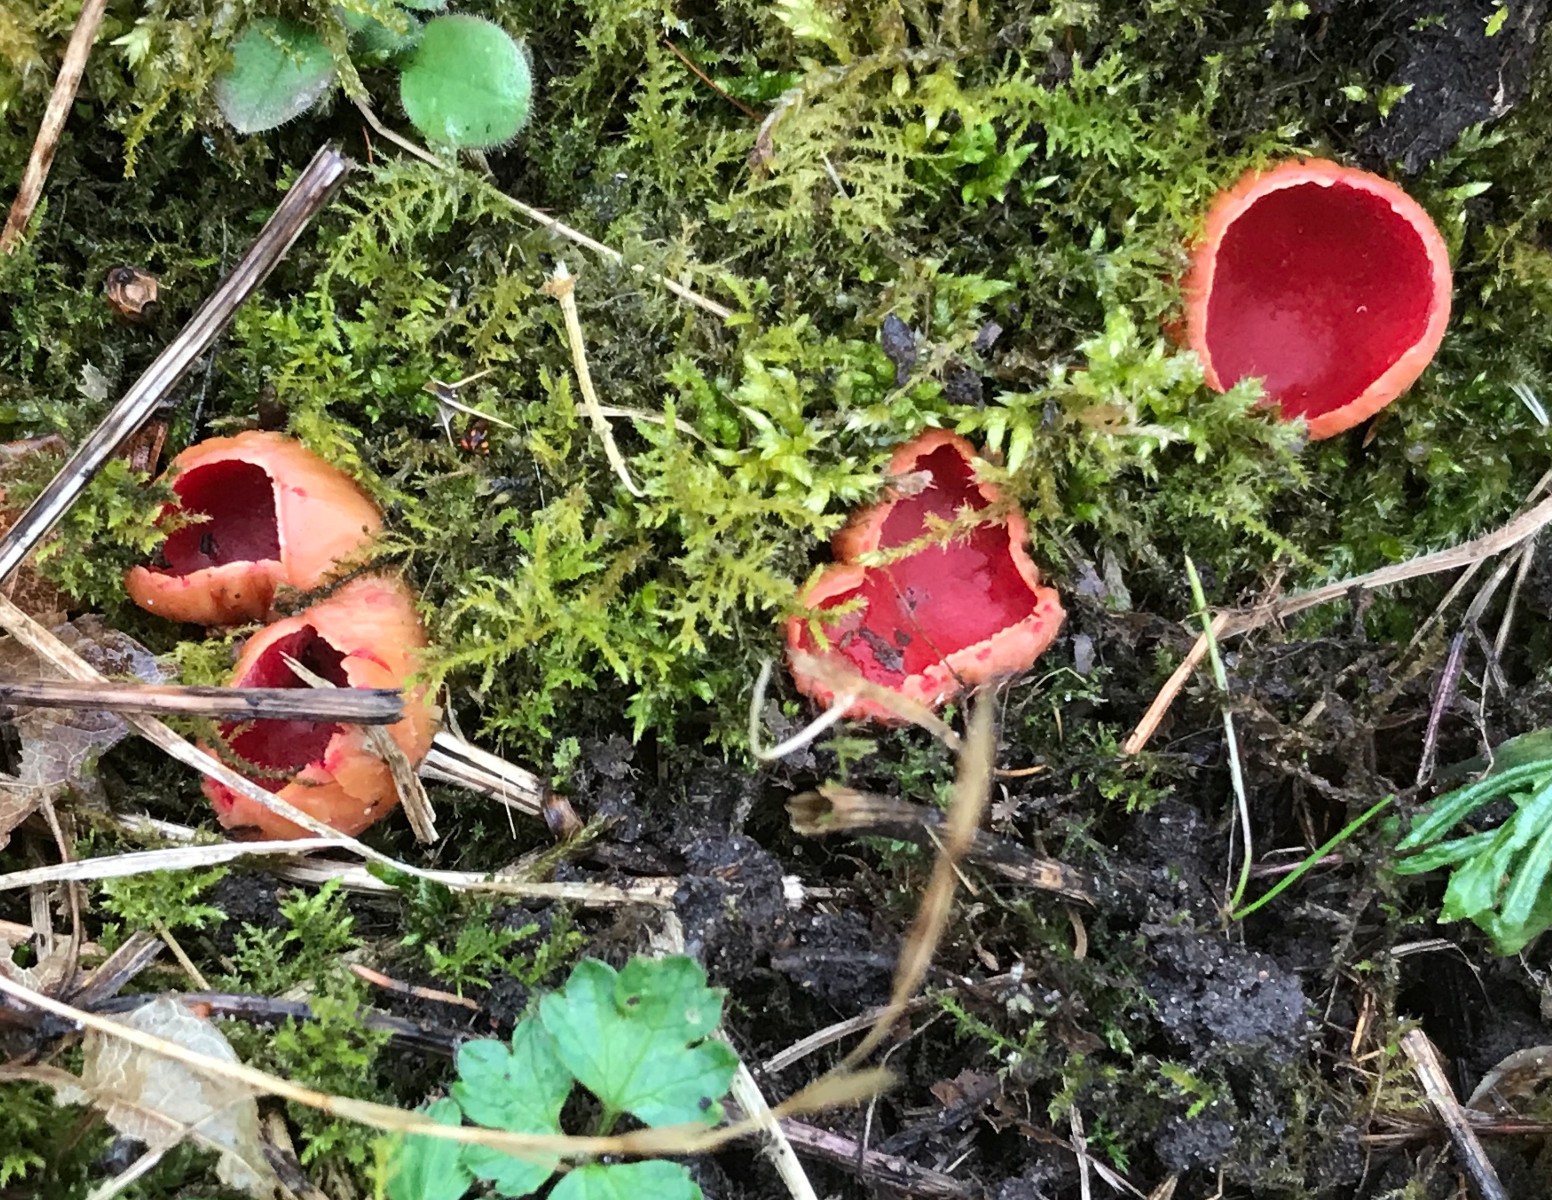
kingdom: Fungi
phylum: Ascomycota
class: Pezizomycetes
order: Pezizales
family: Sarcoscyphaceae
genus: Sarcoscypha
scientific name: Sarcoscypha austriaca
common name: krølhåret pragtbæger
